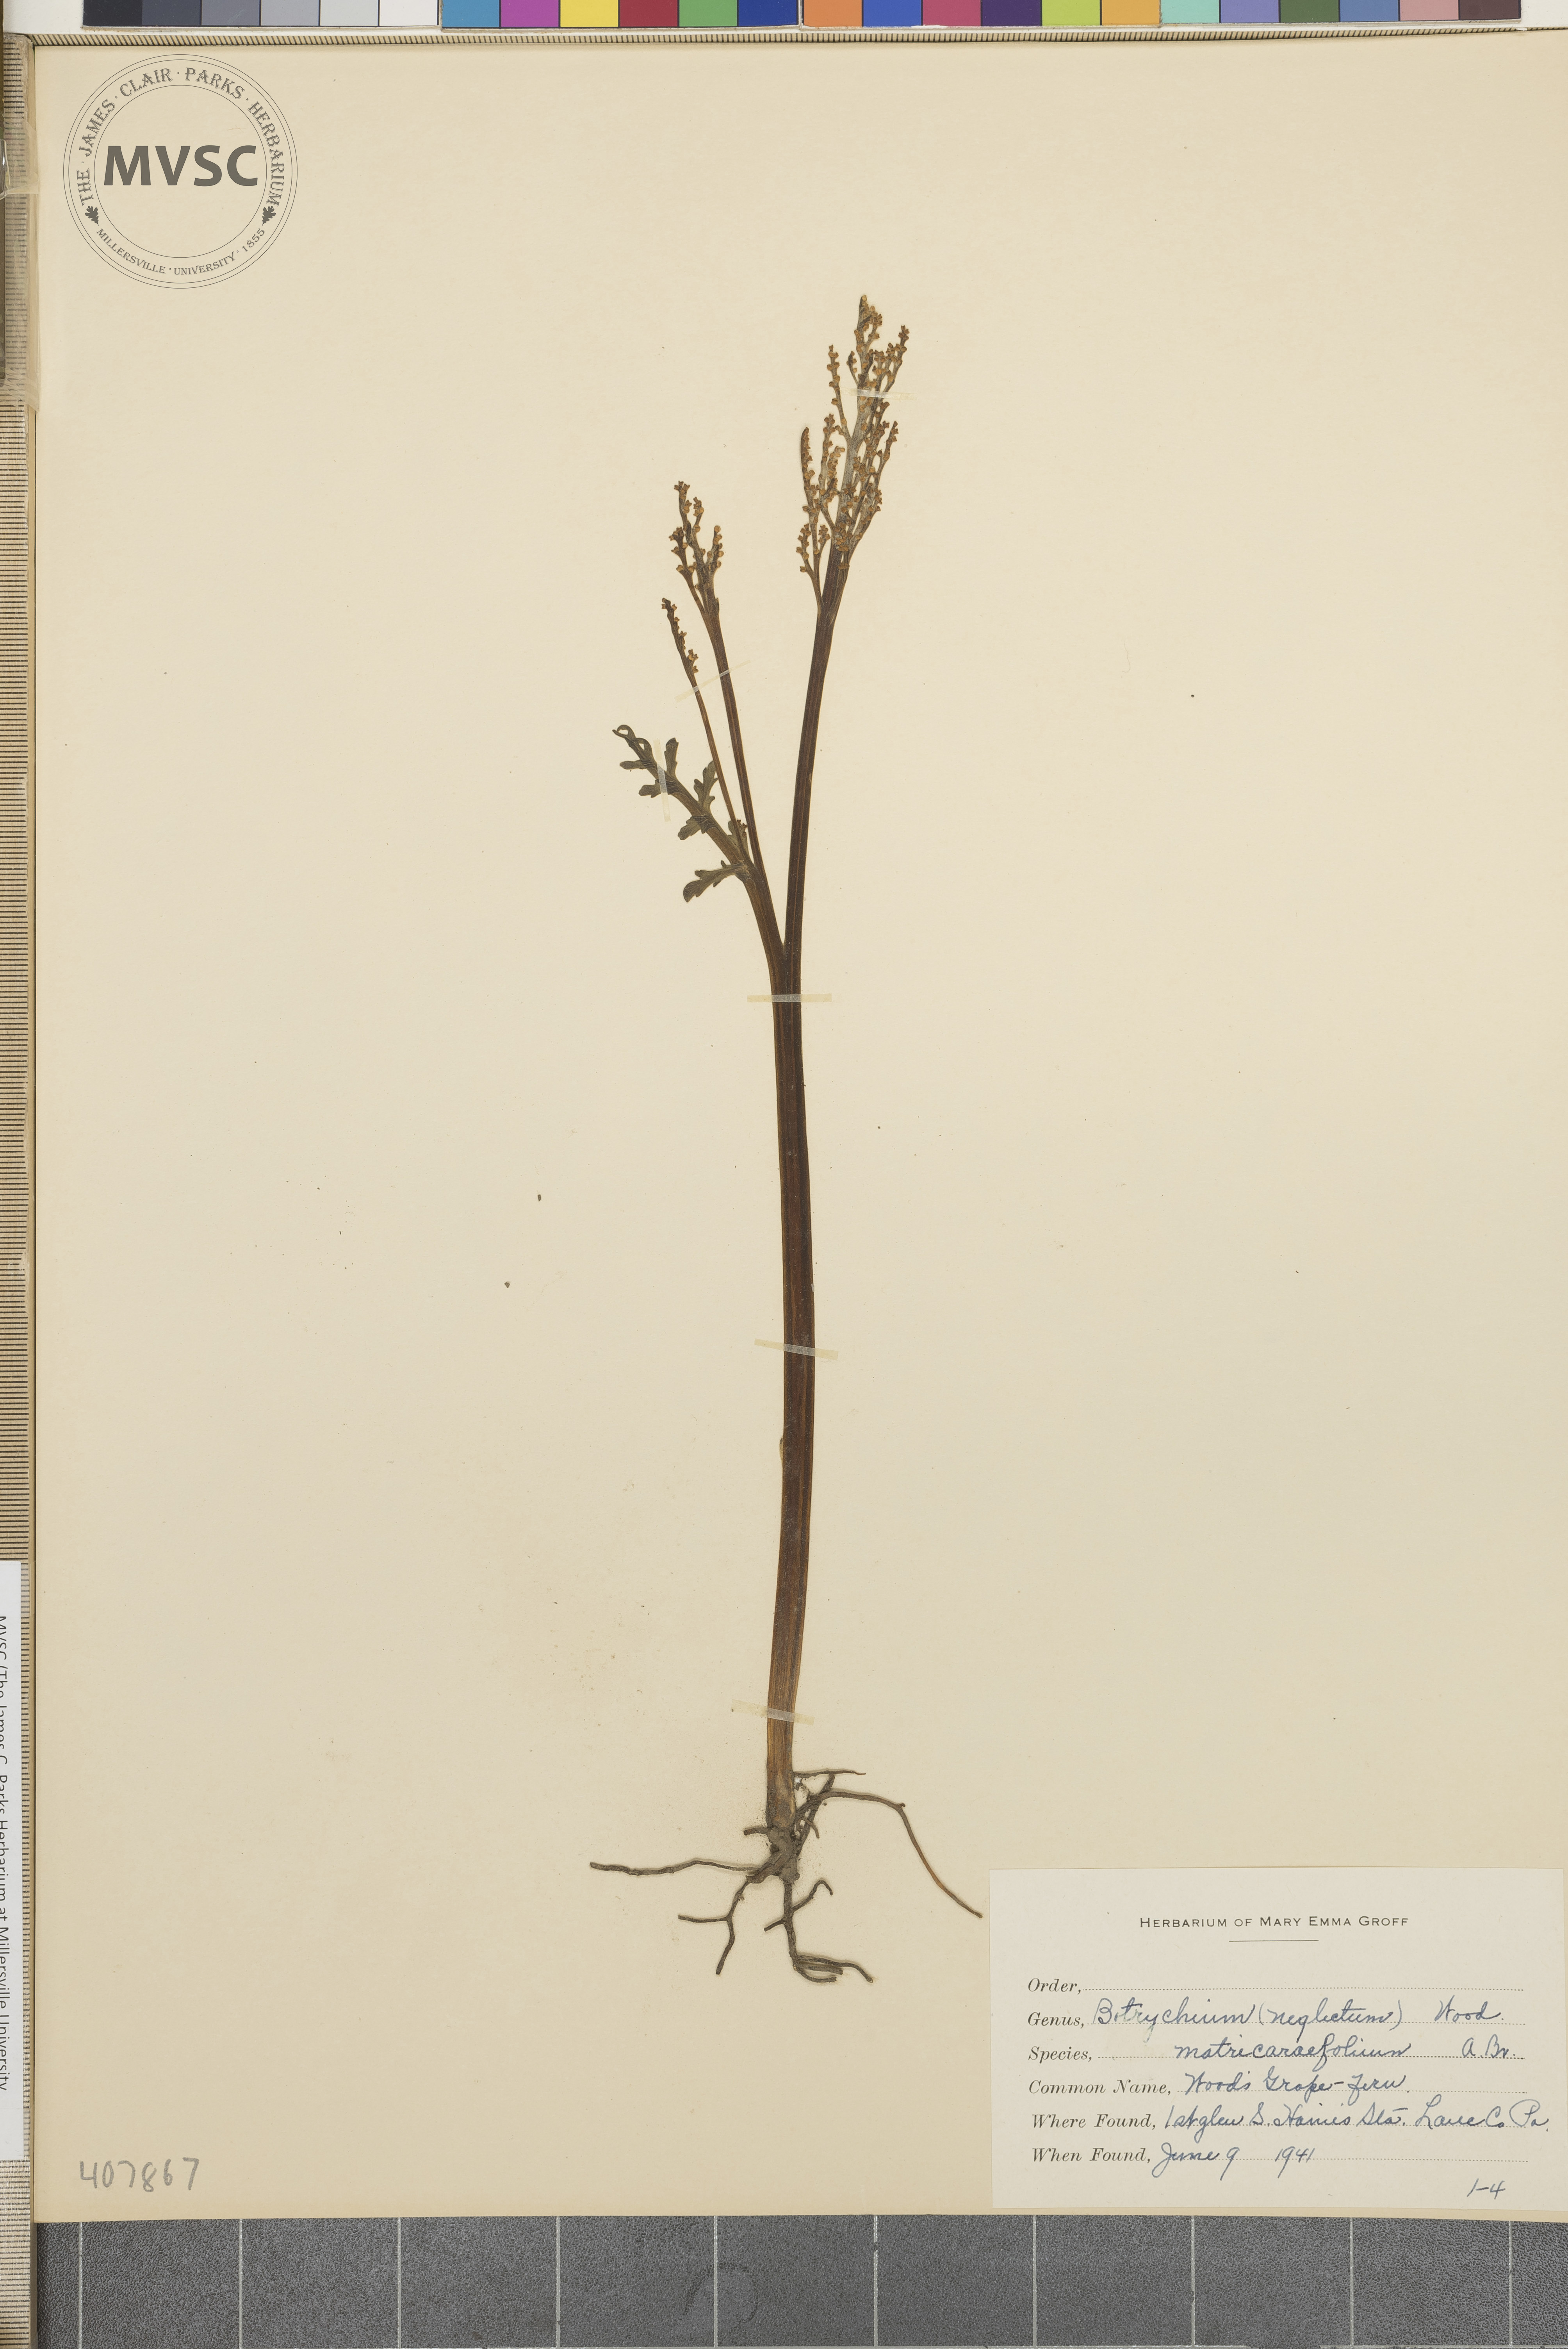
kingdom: Plantae
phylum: Tracheophyta
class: Polypodiopsida
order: Ophioglossales
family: Ophioglossaceae
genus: Botrychium
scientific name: Botrychium matricariifolium
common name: Branched moonwort
